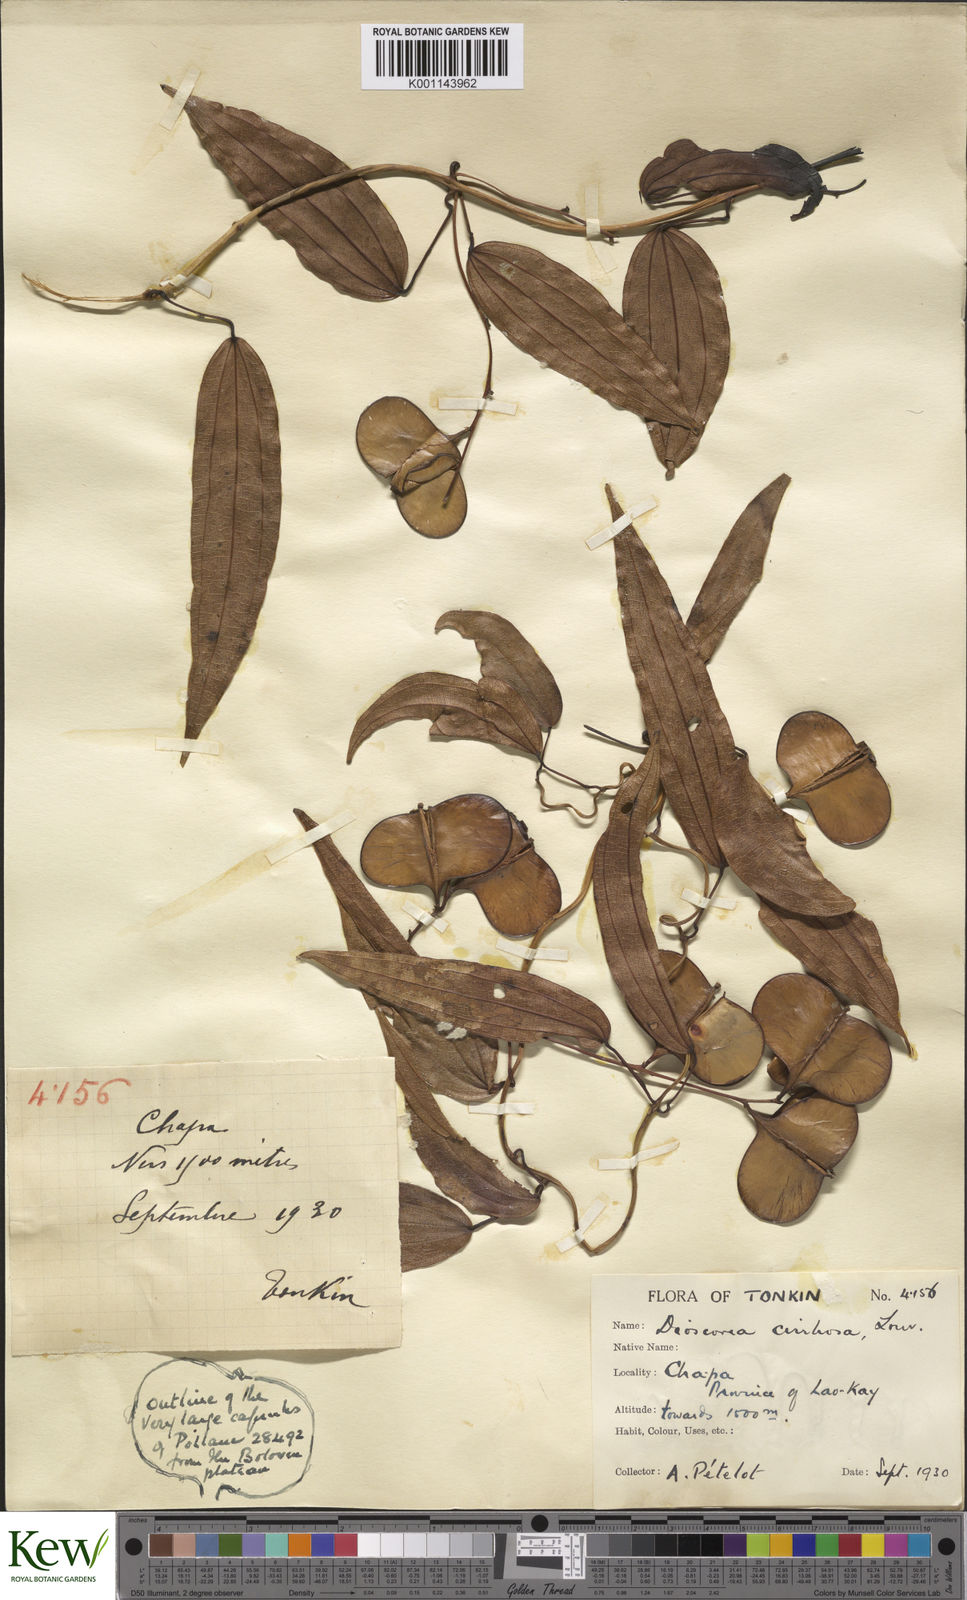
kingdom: Plantae
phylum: Tracheophyta
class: Liliopsida
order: Dioscoreales
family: Dioscoreaceae
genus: Dioscorea
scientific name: Dioscorea cirrhosa
